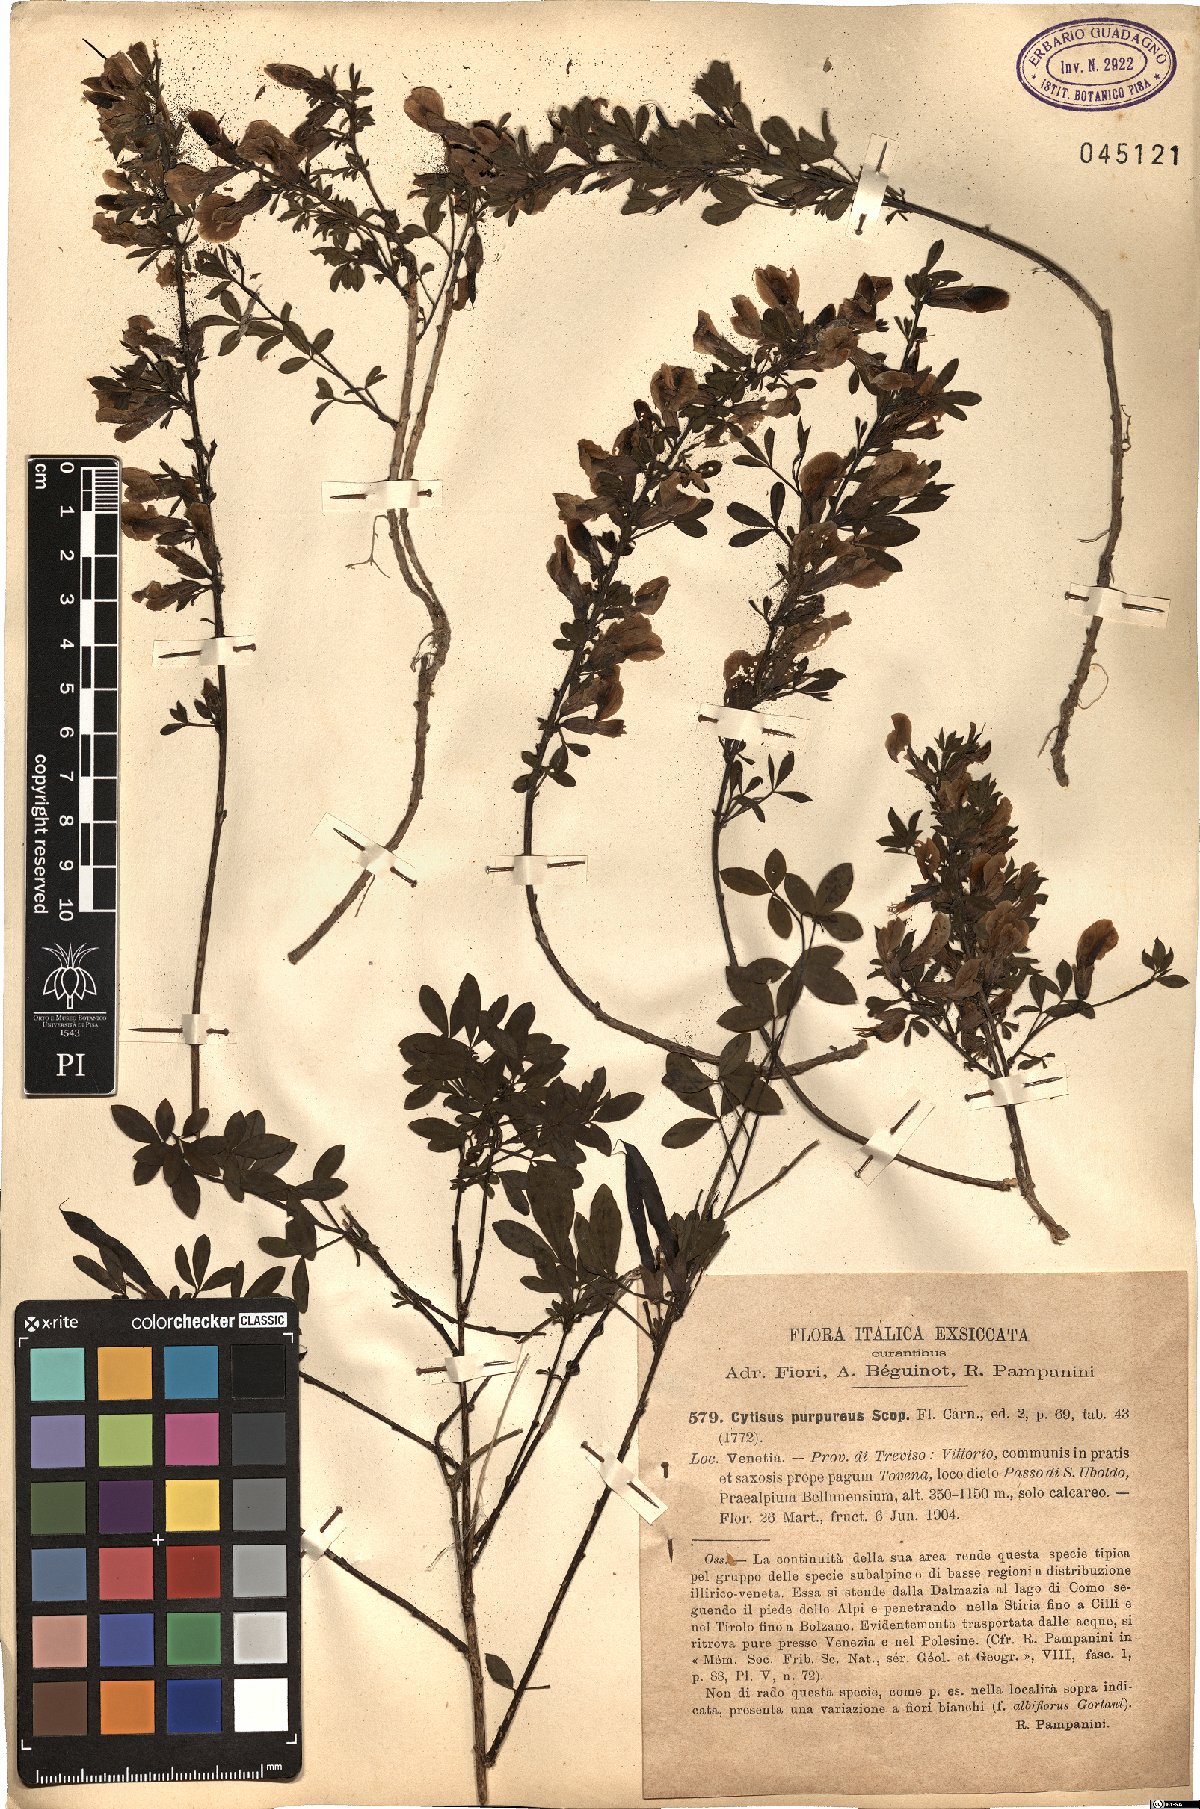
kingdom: Plantae
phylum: Tracheophyta
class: Magnoliopsida
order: Fabales
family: Fabaceae
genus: Chamaecytisus
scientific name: Chamaecytisus purpureus
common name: Purple broom
